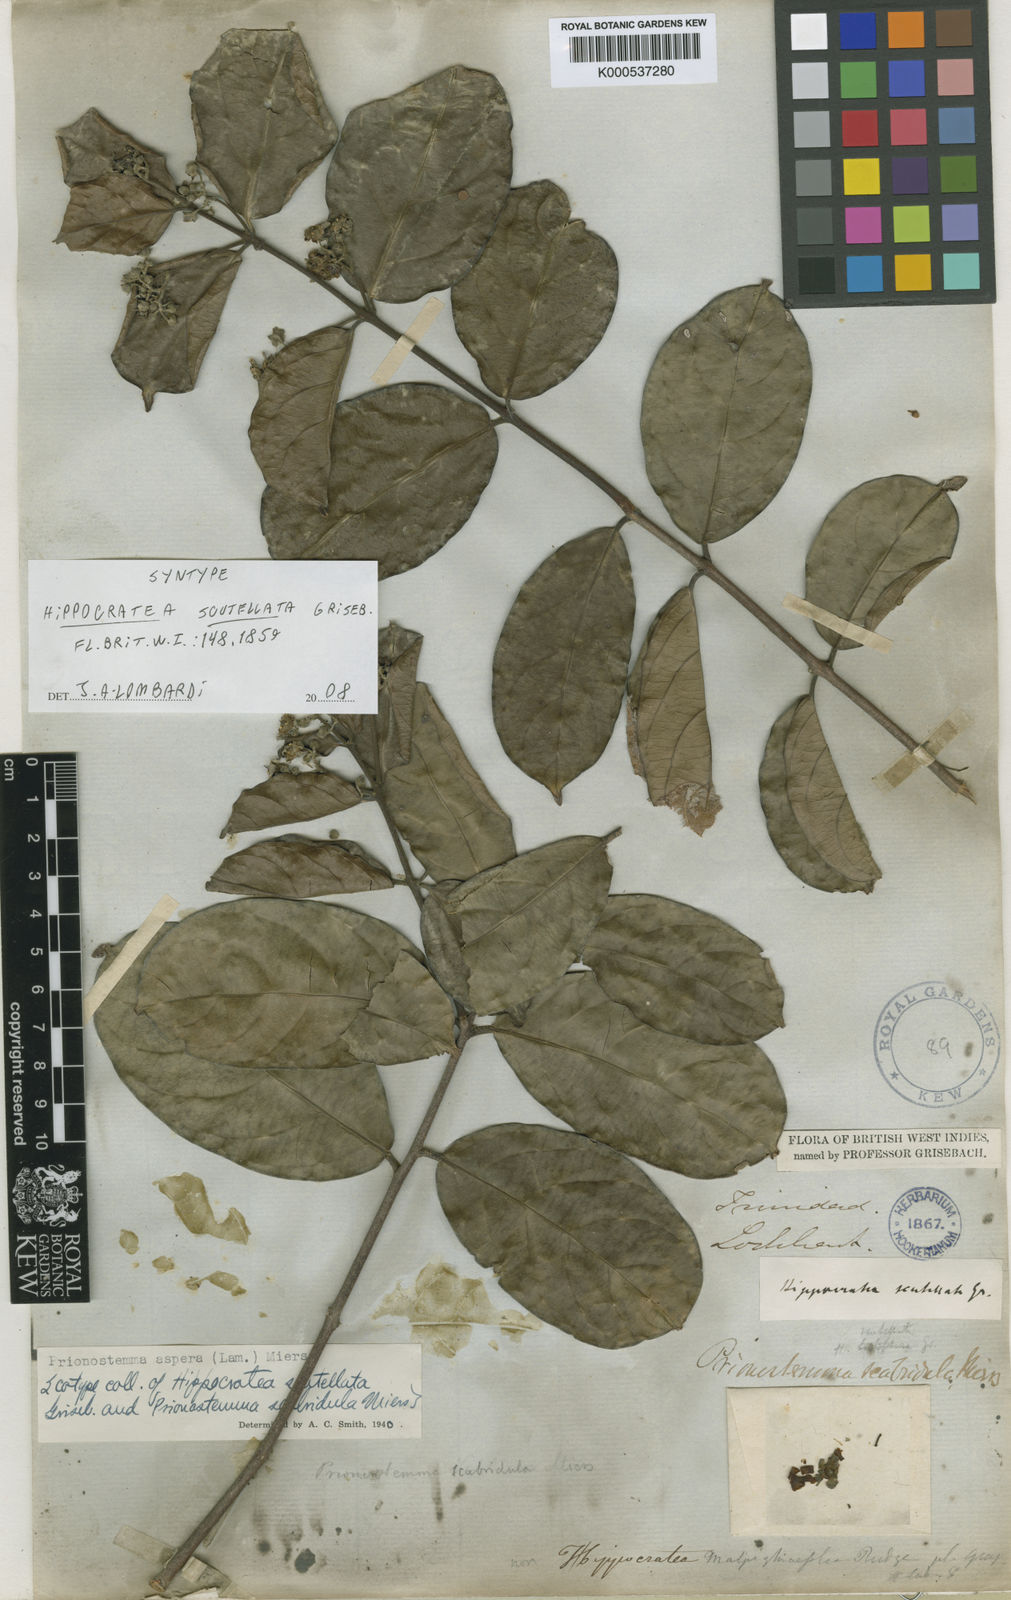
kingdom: Plantae
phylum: Tracheophyta
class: Magnoliopsida
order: Celastrales
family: Celastraceae
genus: Prionostemma
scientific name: Prionostemma aspera
